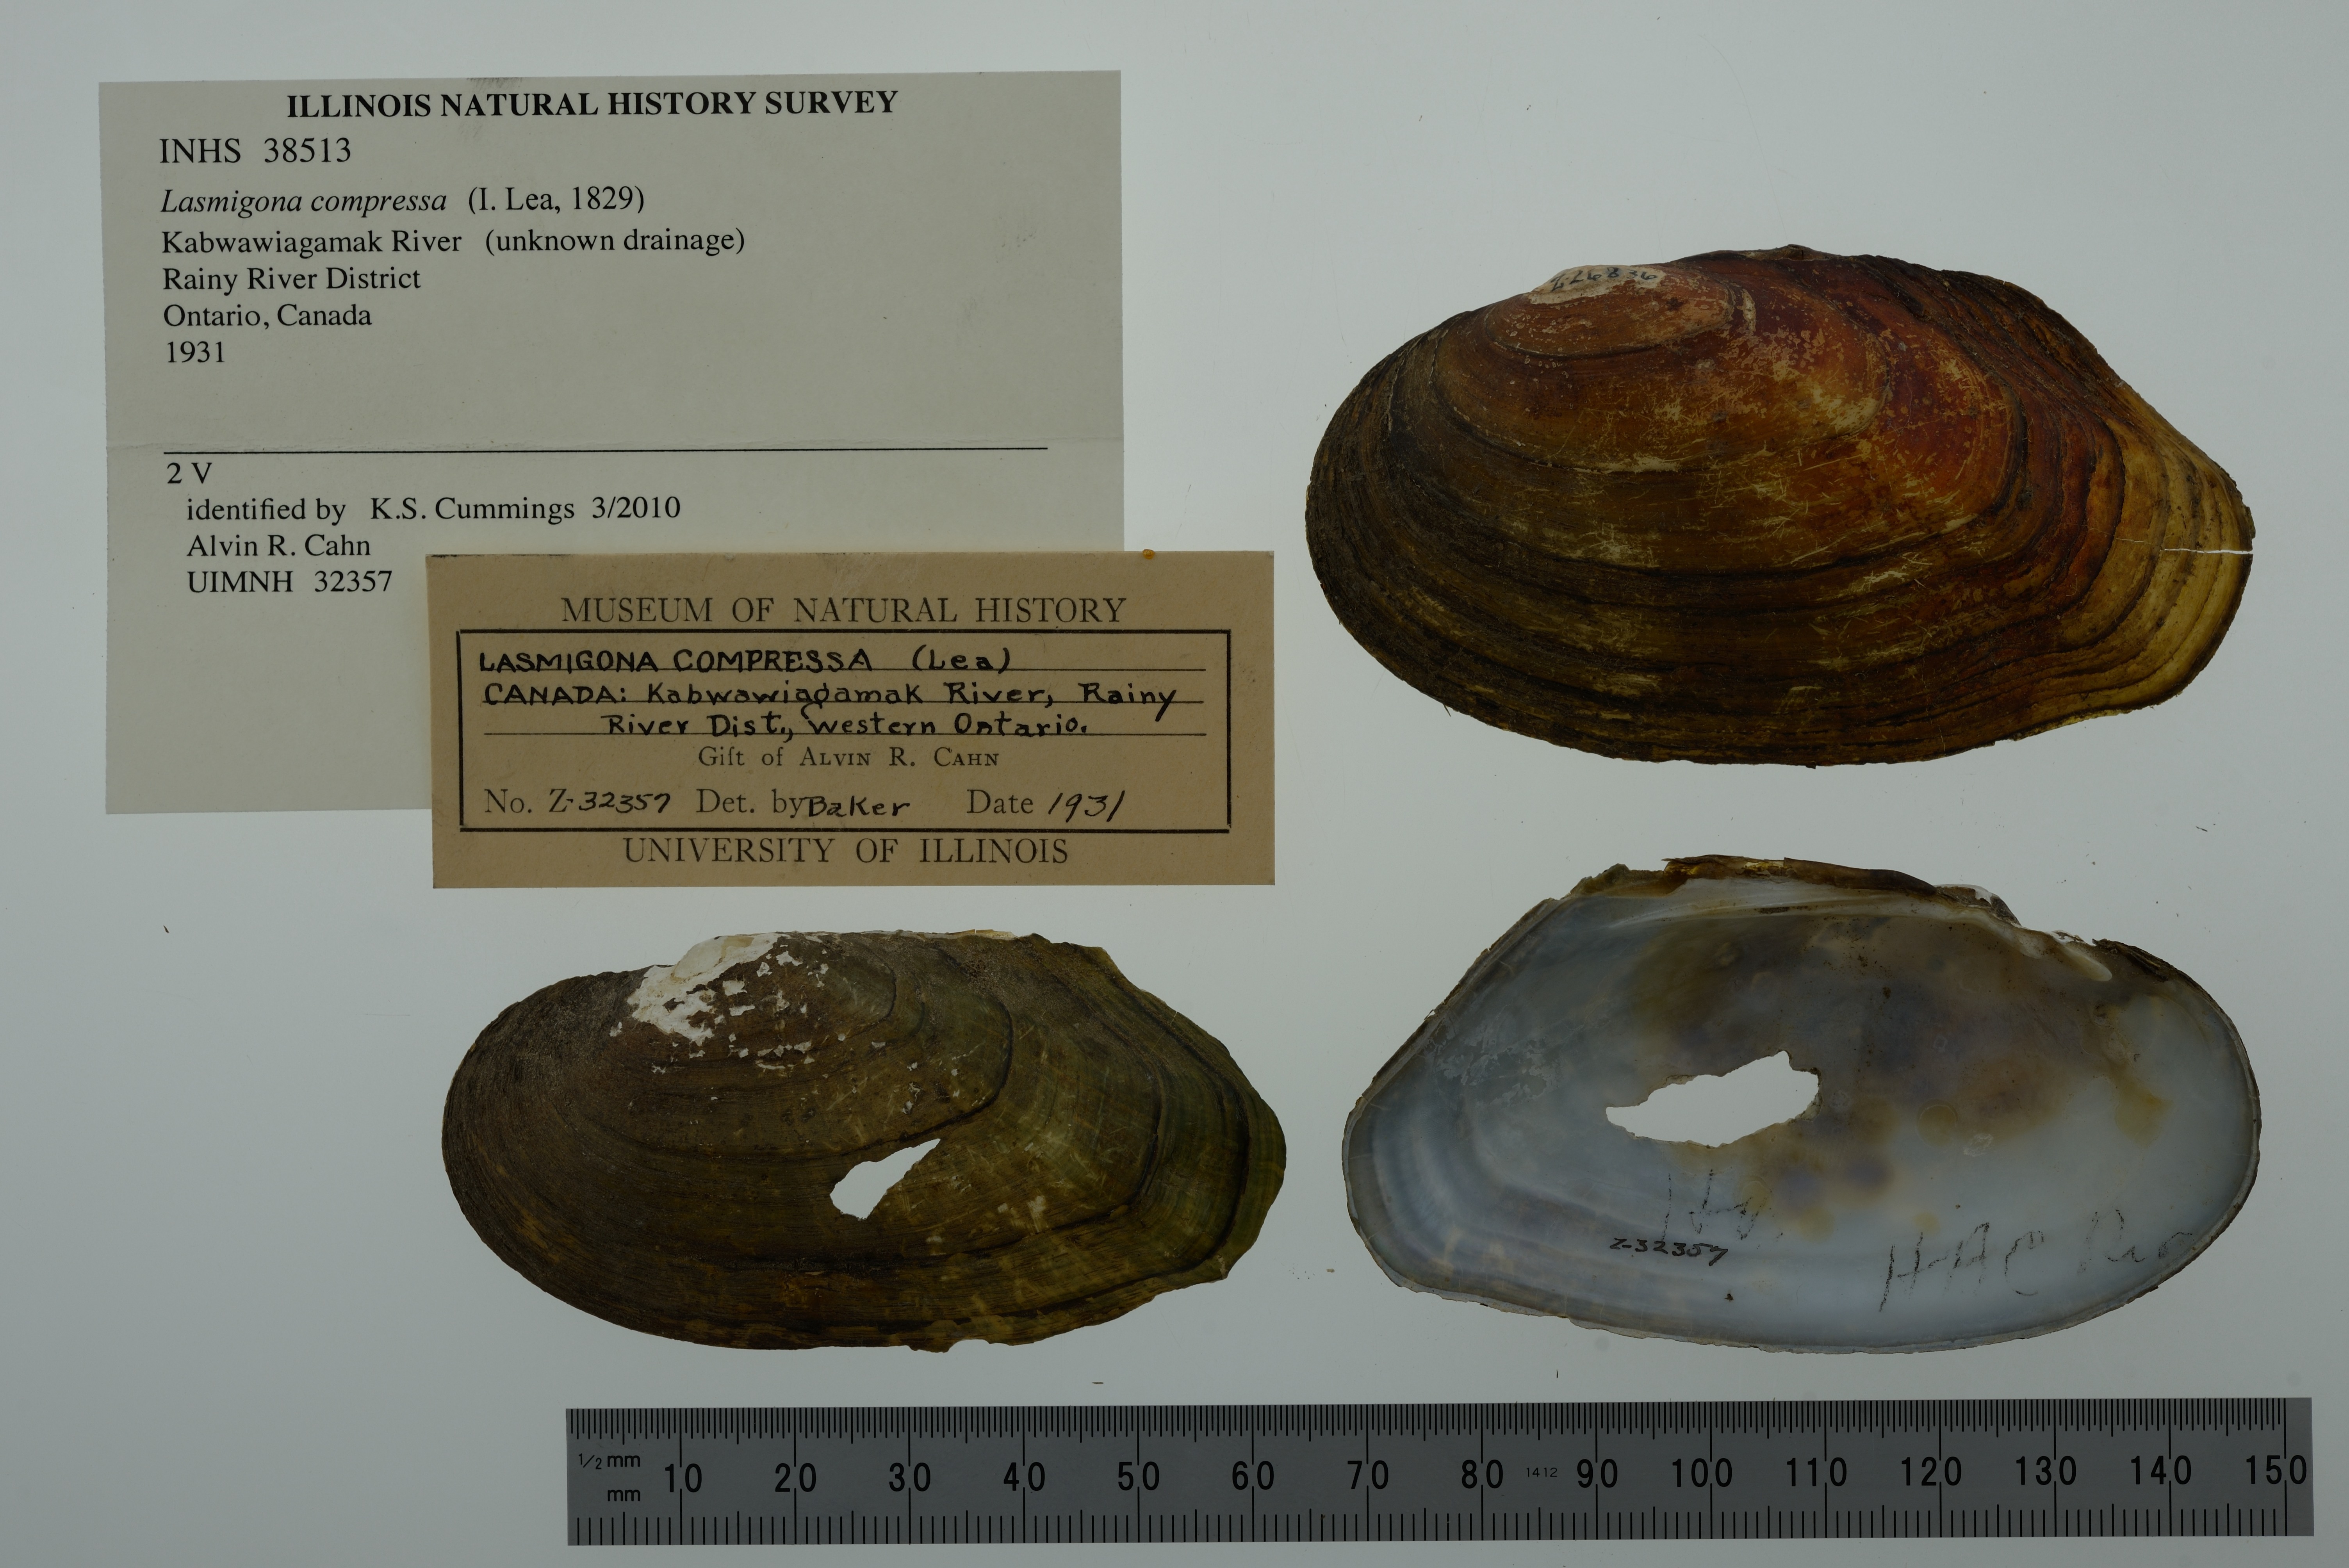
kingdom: Animalia
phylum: Mollusca
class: Bivalvia
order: Unionida
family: Unionidae
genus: Lasmigona
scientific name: Lasmigona compressa
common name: Creek heelsplitter
